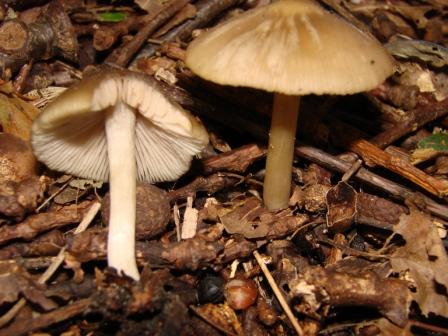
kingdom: Fungi
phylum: Basidiomycota
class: Agaricomycetes
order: Agaricales
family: Entolomataceae
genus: Entoloma
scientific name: Entoloma sordidulum
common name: smudsig rødblad
